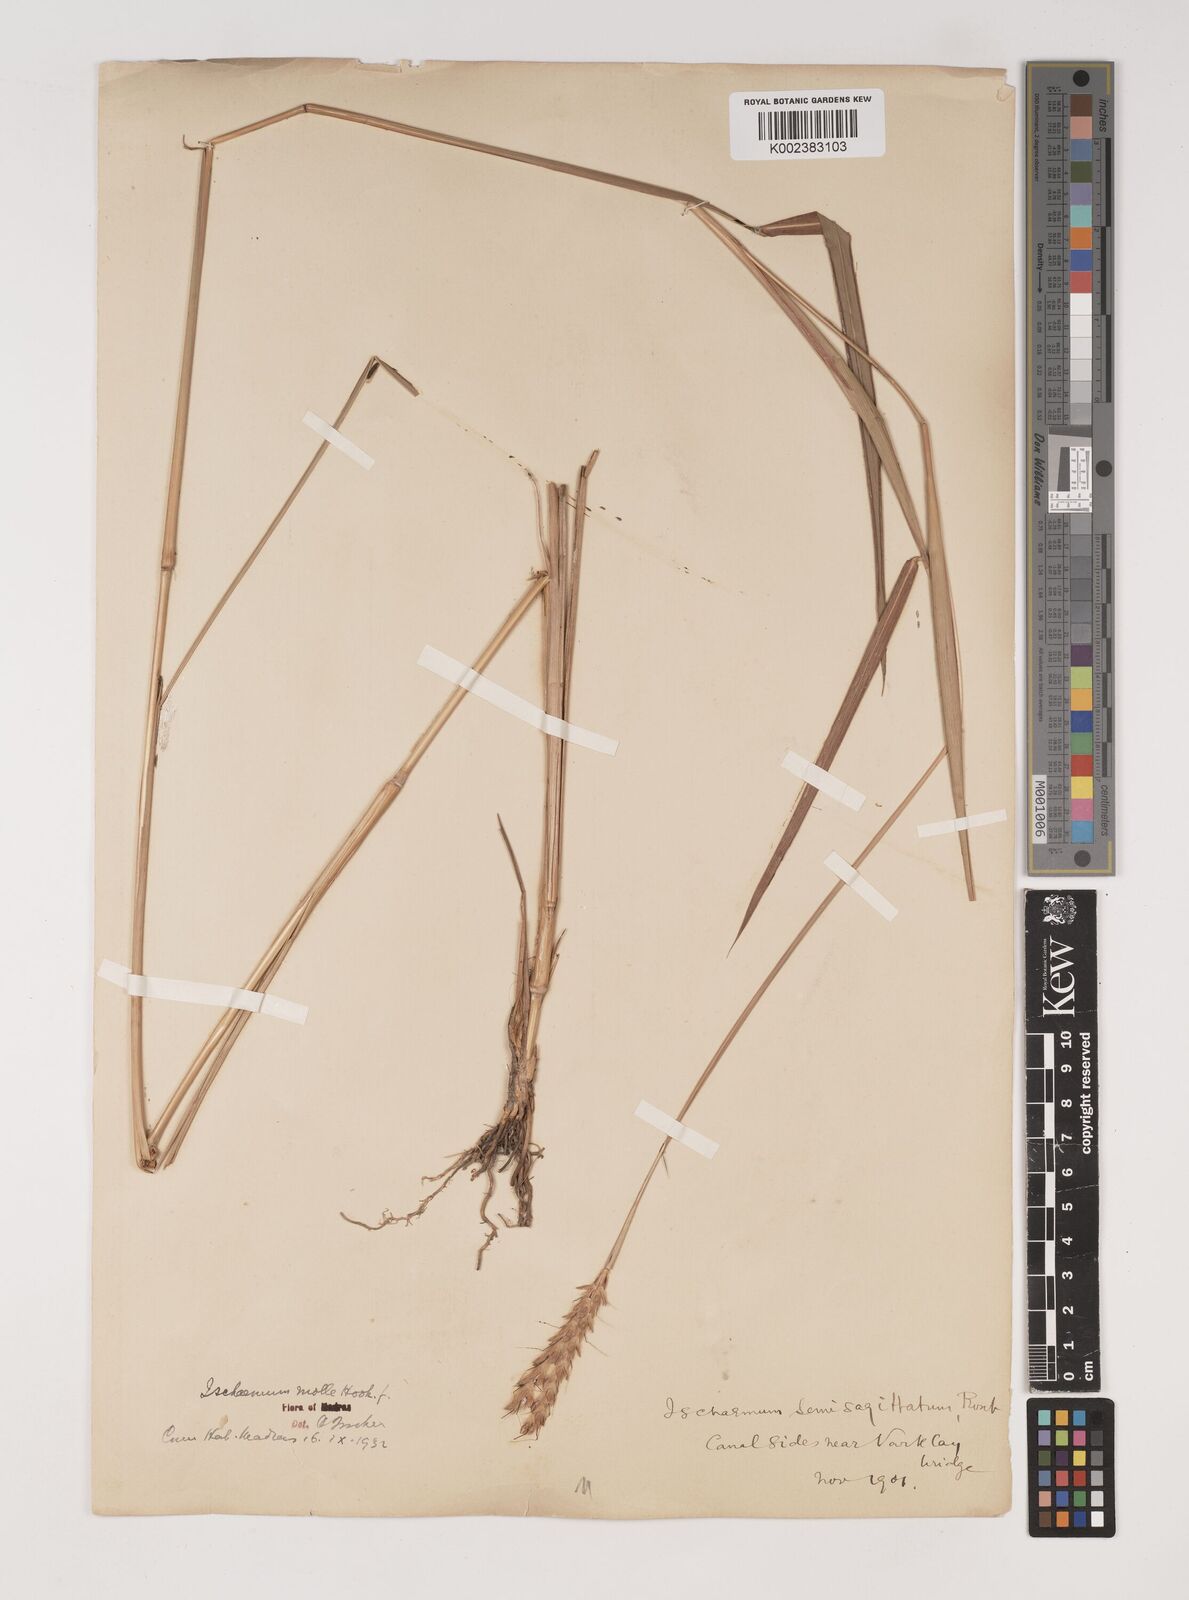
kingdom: Plantae
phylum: Tracheophyta
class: Liliopsida
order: Poales
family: Poaceae
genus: Ischaemum
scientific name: Ischaemum molle
